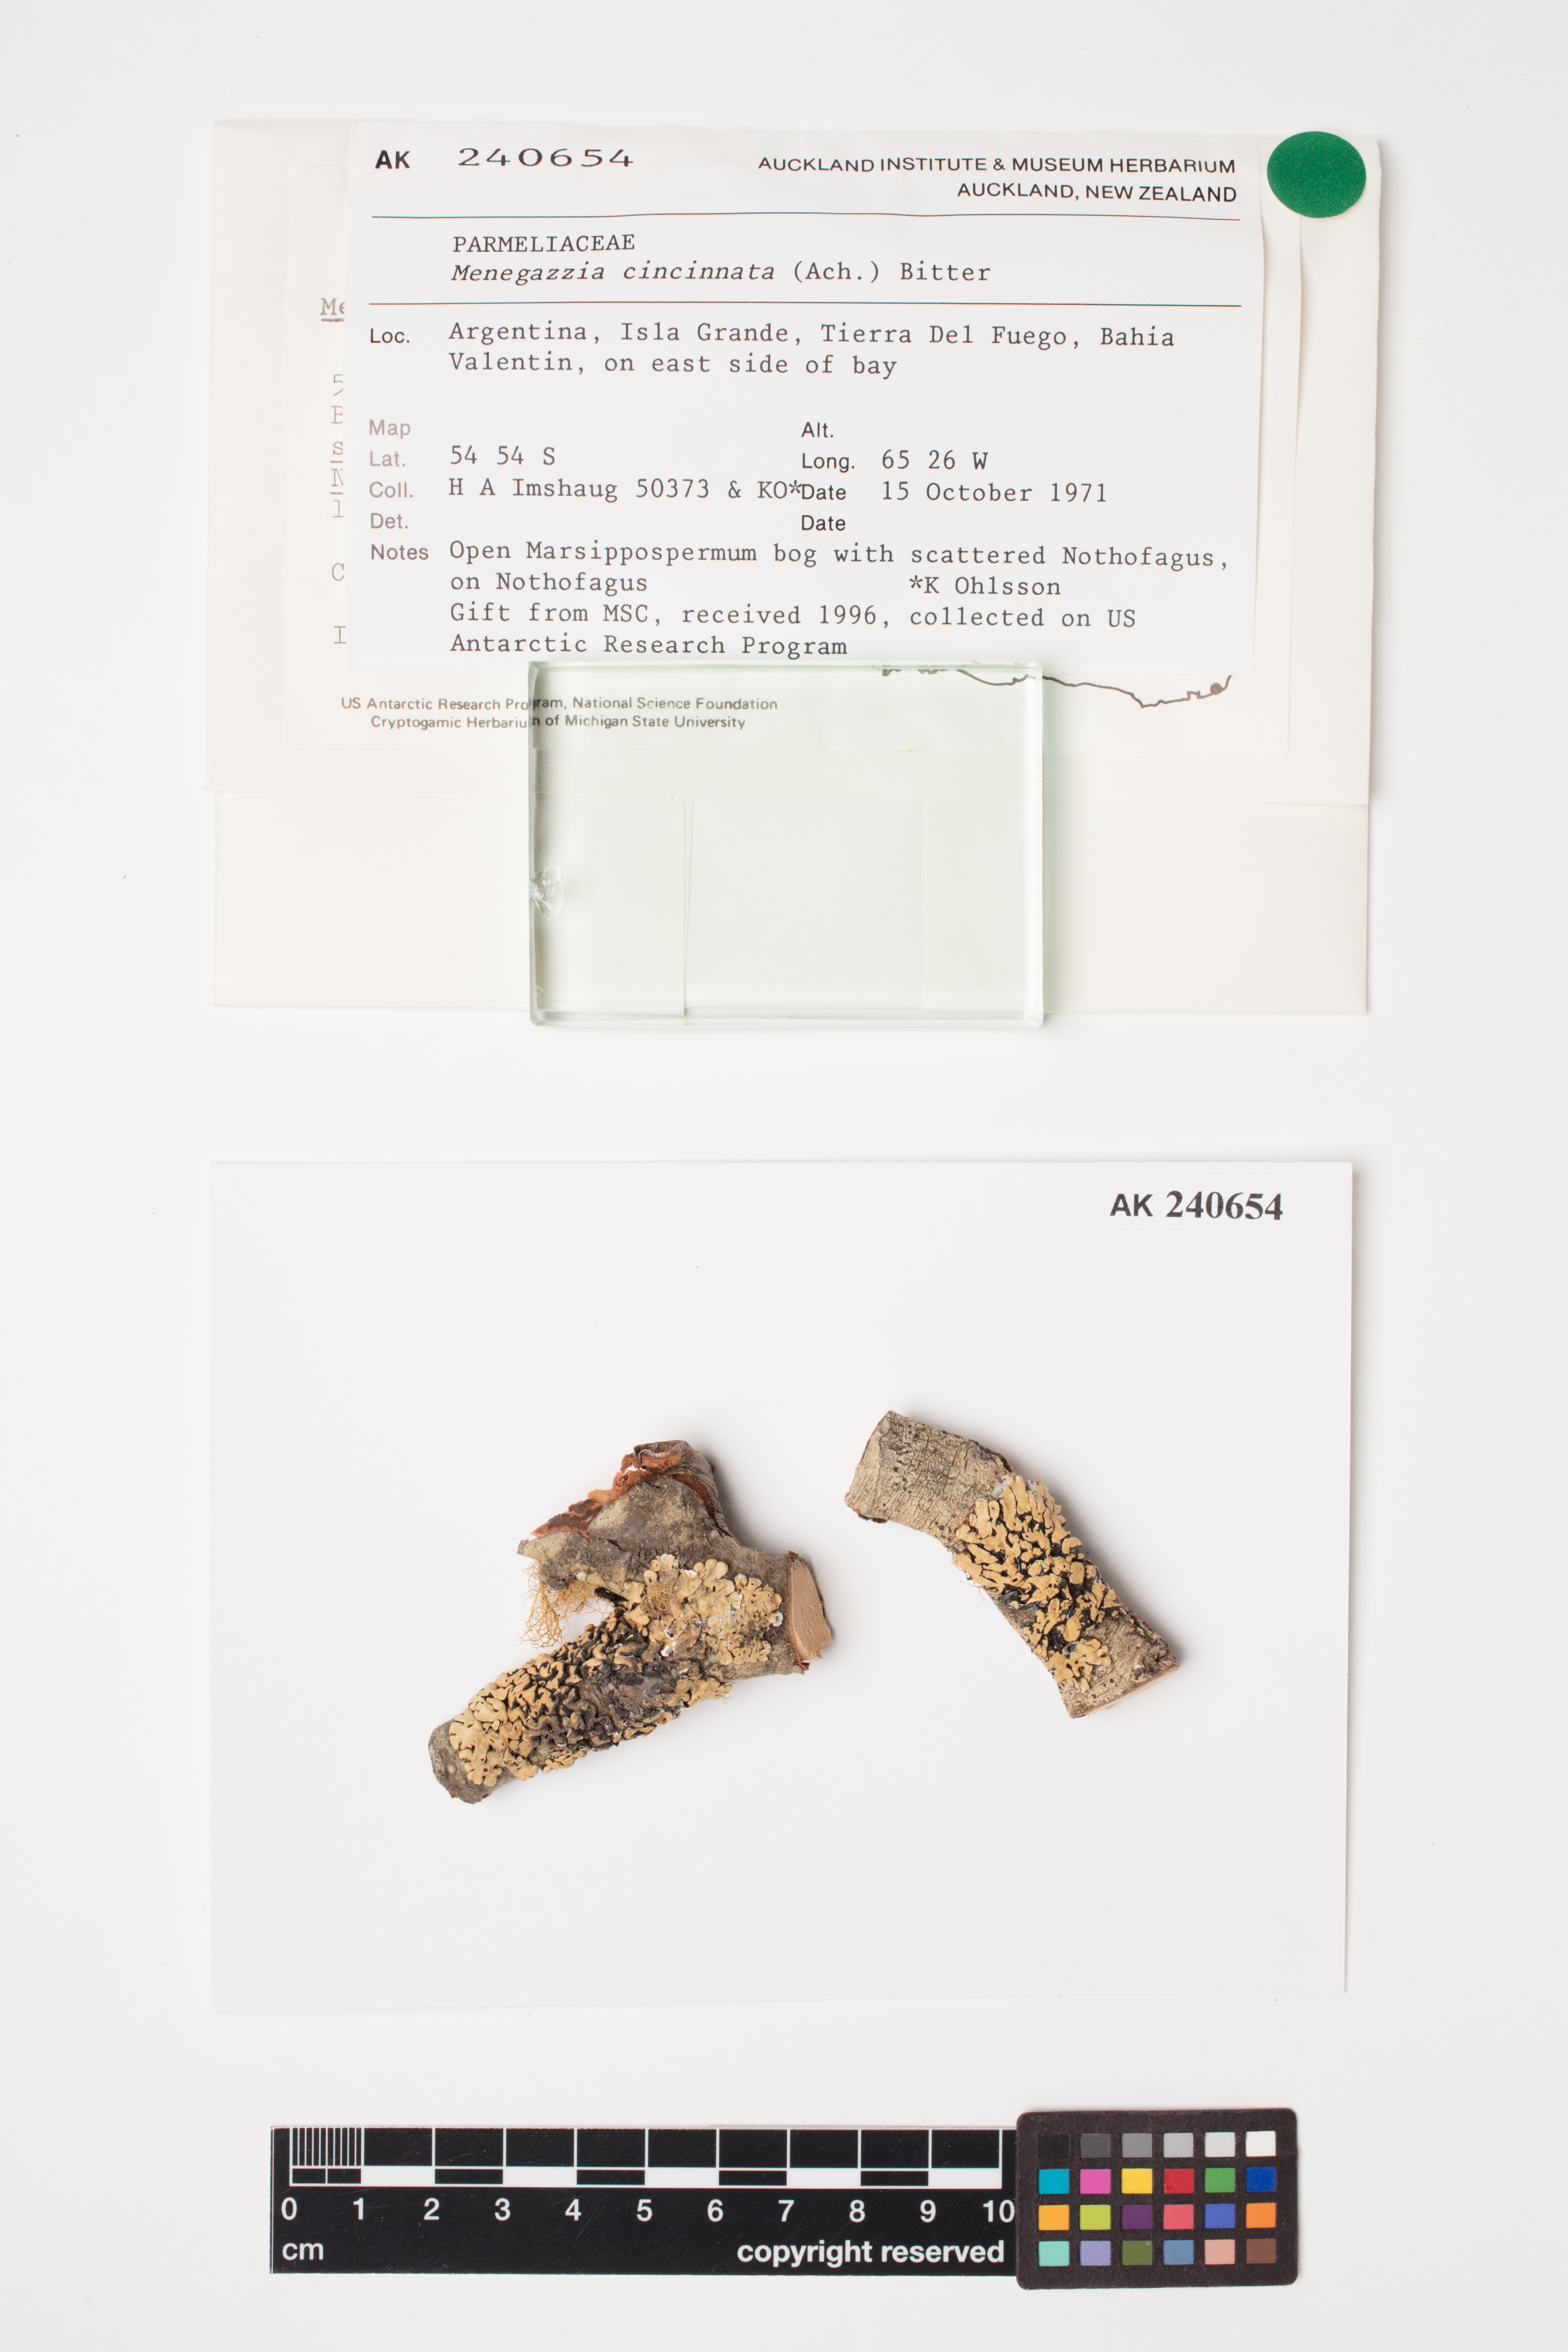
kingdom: Fungi
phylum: Ascomycota
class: Lecanoromycetes
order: Lecanorales
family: Parmeliaceae
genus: Menegazzia
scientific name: Menegazzia cincinnata
